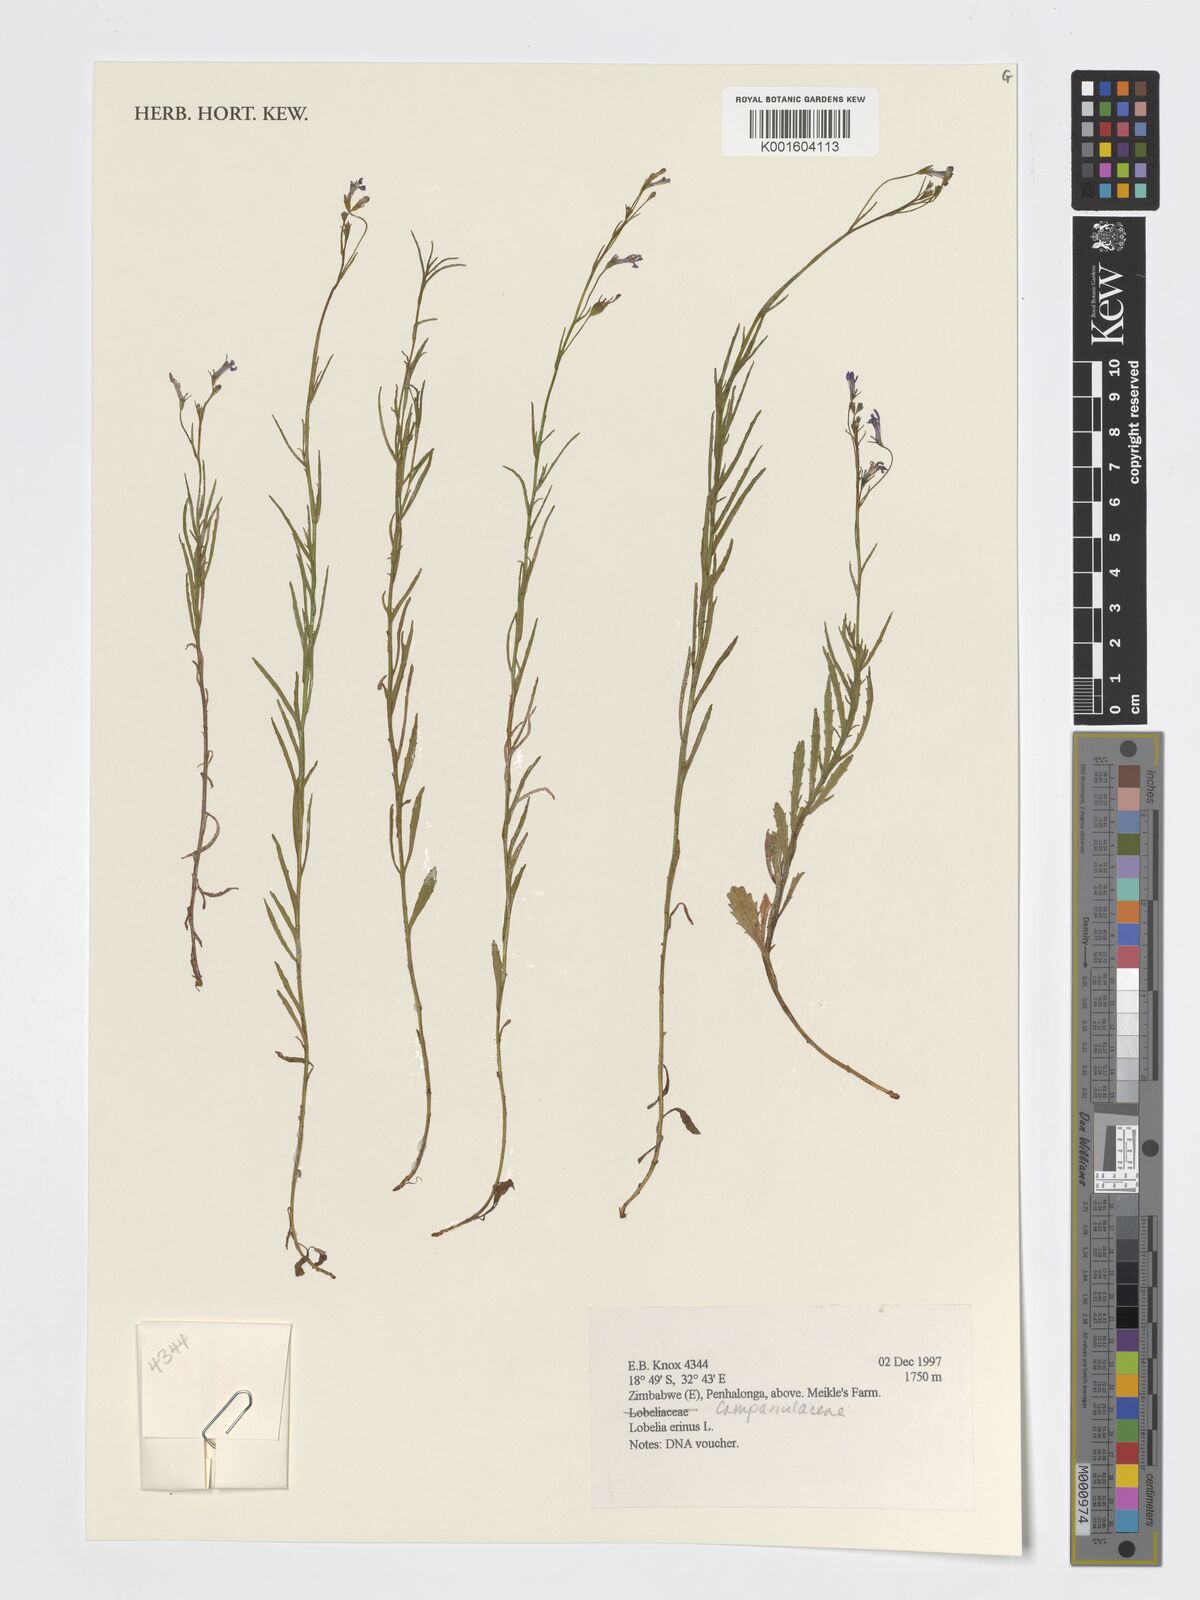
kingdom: Plantae
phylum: Tracheophyta
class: Magnoliopsida
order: Asterales
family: Campanulaceae
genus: Lobelia
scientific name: Lobelia erinus
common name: Edging lobelia
